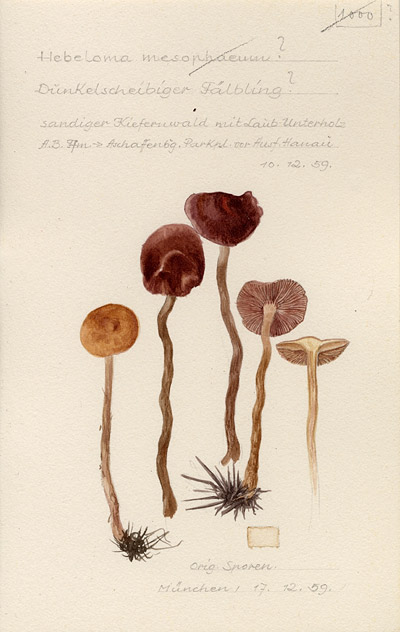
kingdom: Fungi
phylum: Basidiomycota
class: Agaricomycetes
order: Agaricales
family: Hymenogastraceae
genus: Hebeloma
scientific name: Hebeloma mesophaeum
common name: Veiled poisonpie
